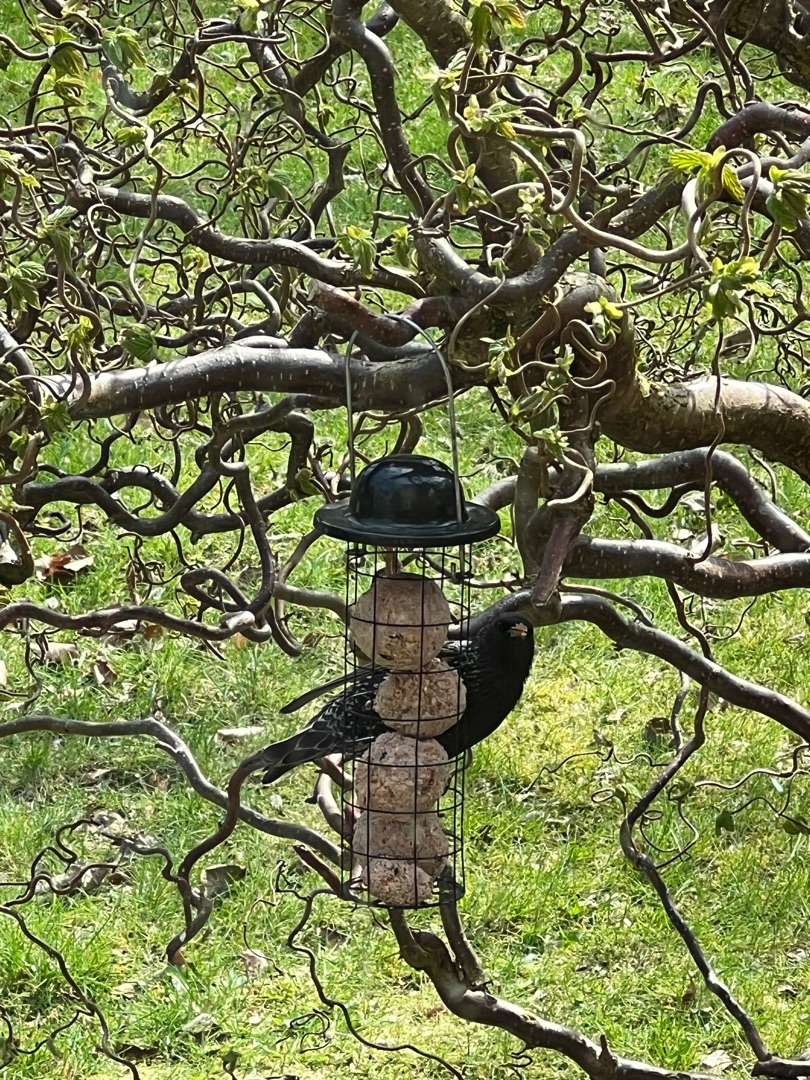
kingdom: Animalia
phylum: Chordata
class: Aves
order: Passeriformes
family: Sturnidae
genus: Sturnus
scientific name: Sturnus vulgaris
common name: Stær
